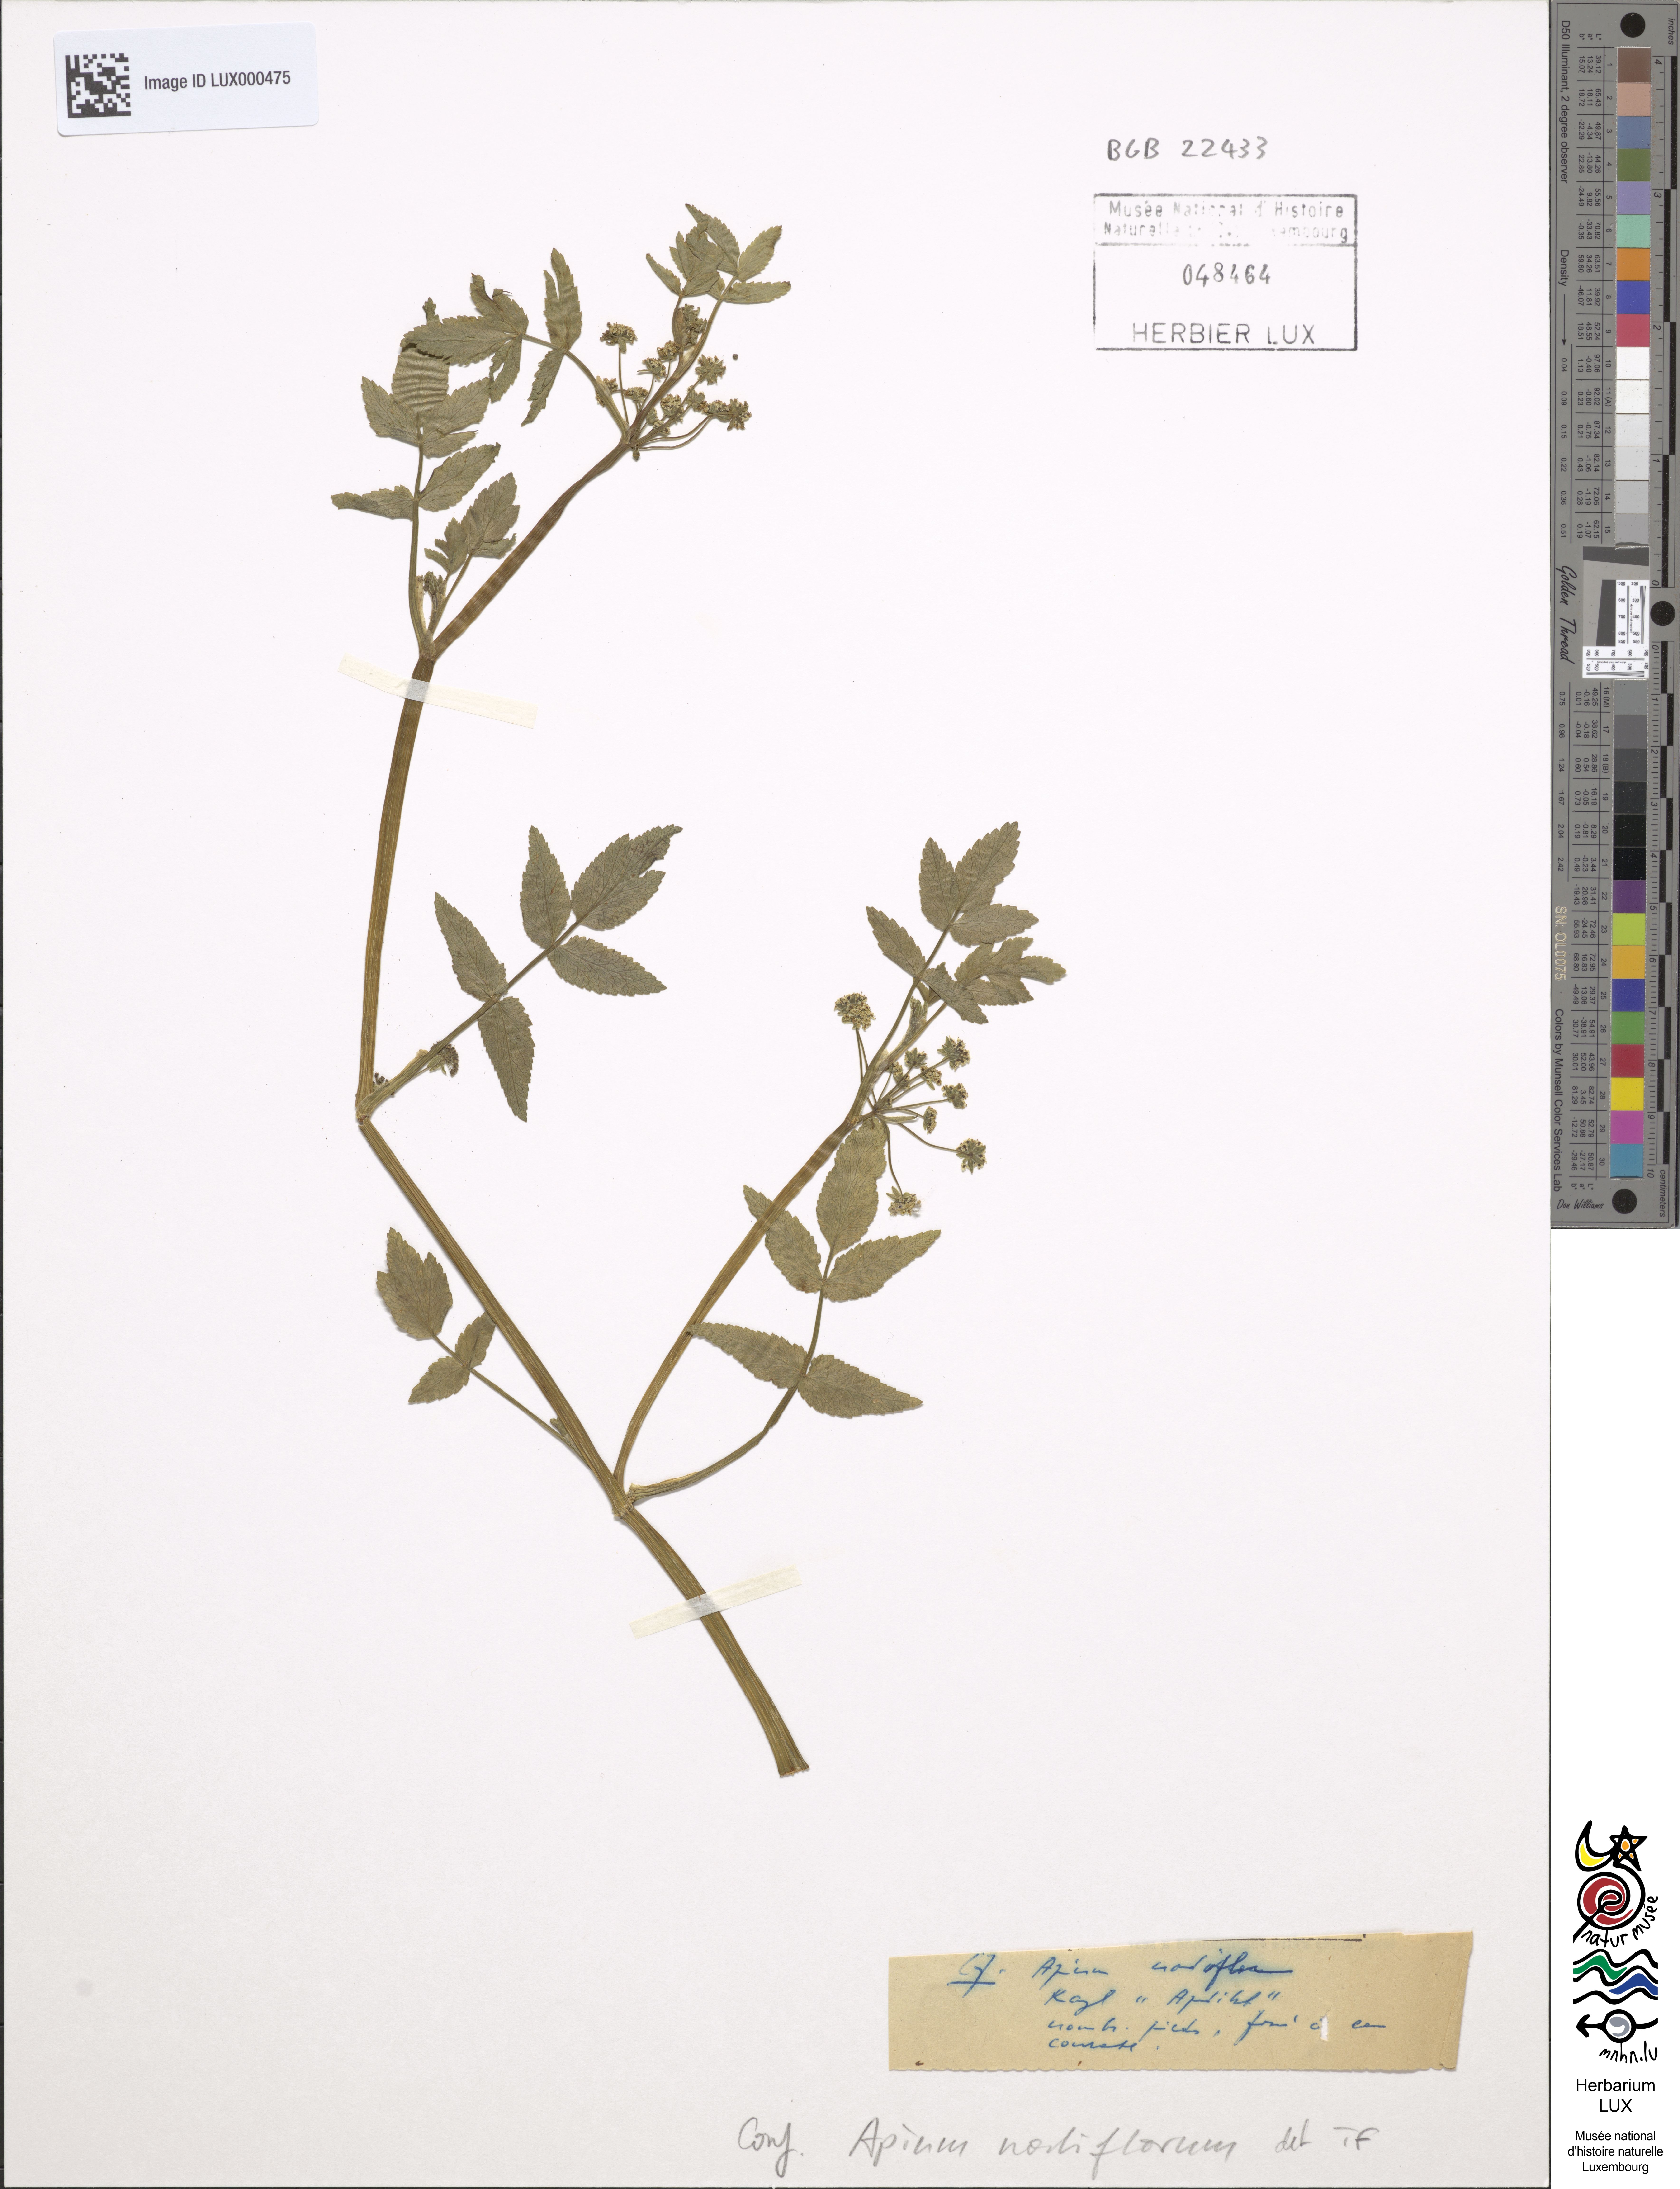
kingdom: Plantae
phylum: Tracheophyta
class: Magnoliopsida
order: Apiales
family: Apiaceae
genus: Helosciadium
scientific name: Helosciadium nodiflorum
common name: Fool's-watercress
